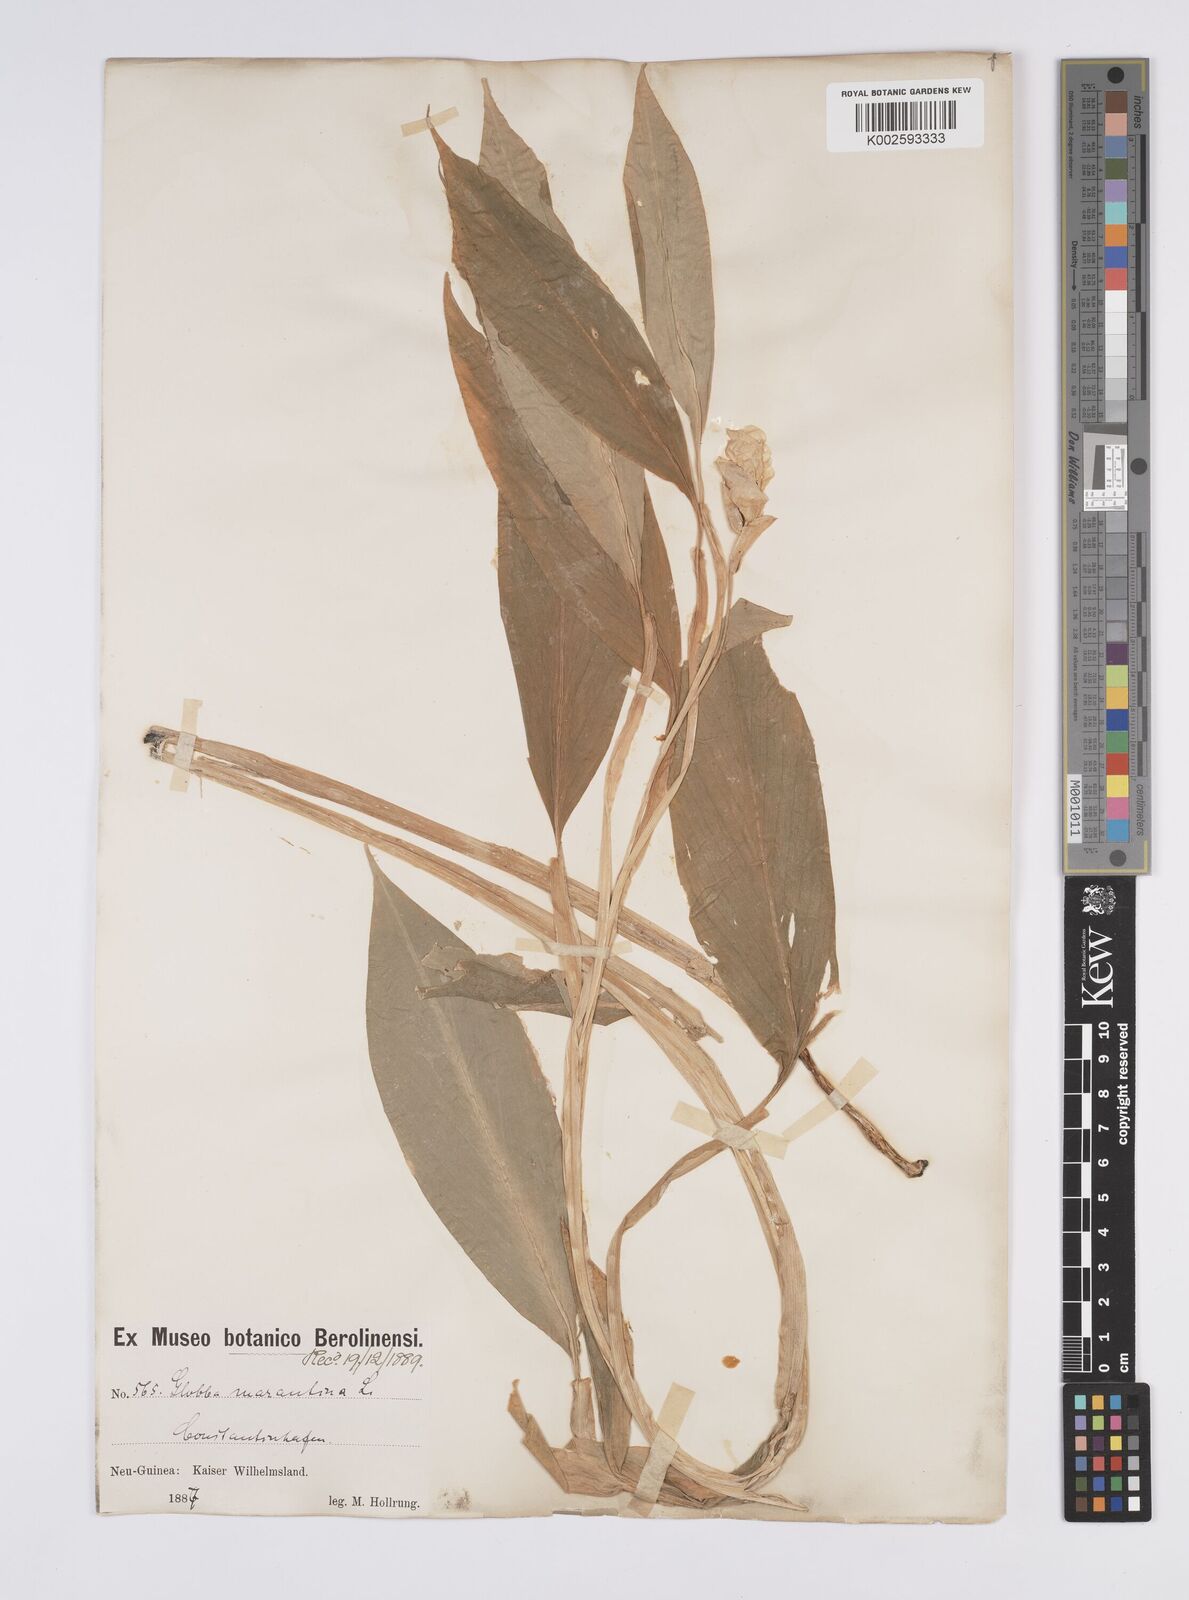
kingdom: Plantae
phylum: Tracheophyta
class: Liliopsida
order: Zingiberales
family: Zingiberaceae
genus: Globba
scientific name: Globba marantina
